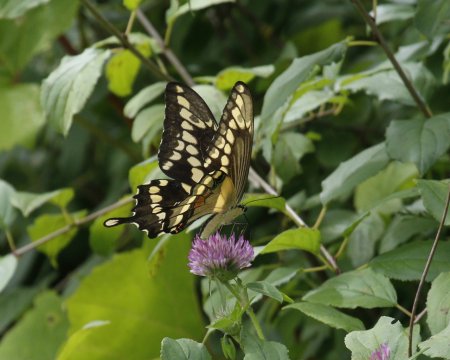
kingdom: Animalia
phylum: Arthropoda
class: Insecta
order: Lepidoptera
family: Papilionidae
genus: Papilio
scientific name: Papilio cresphontes
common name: Eastern Giant Swallowtail
